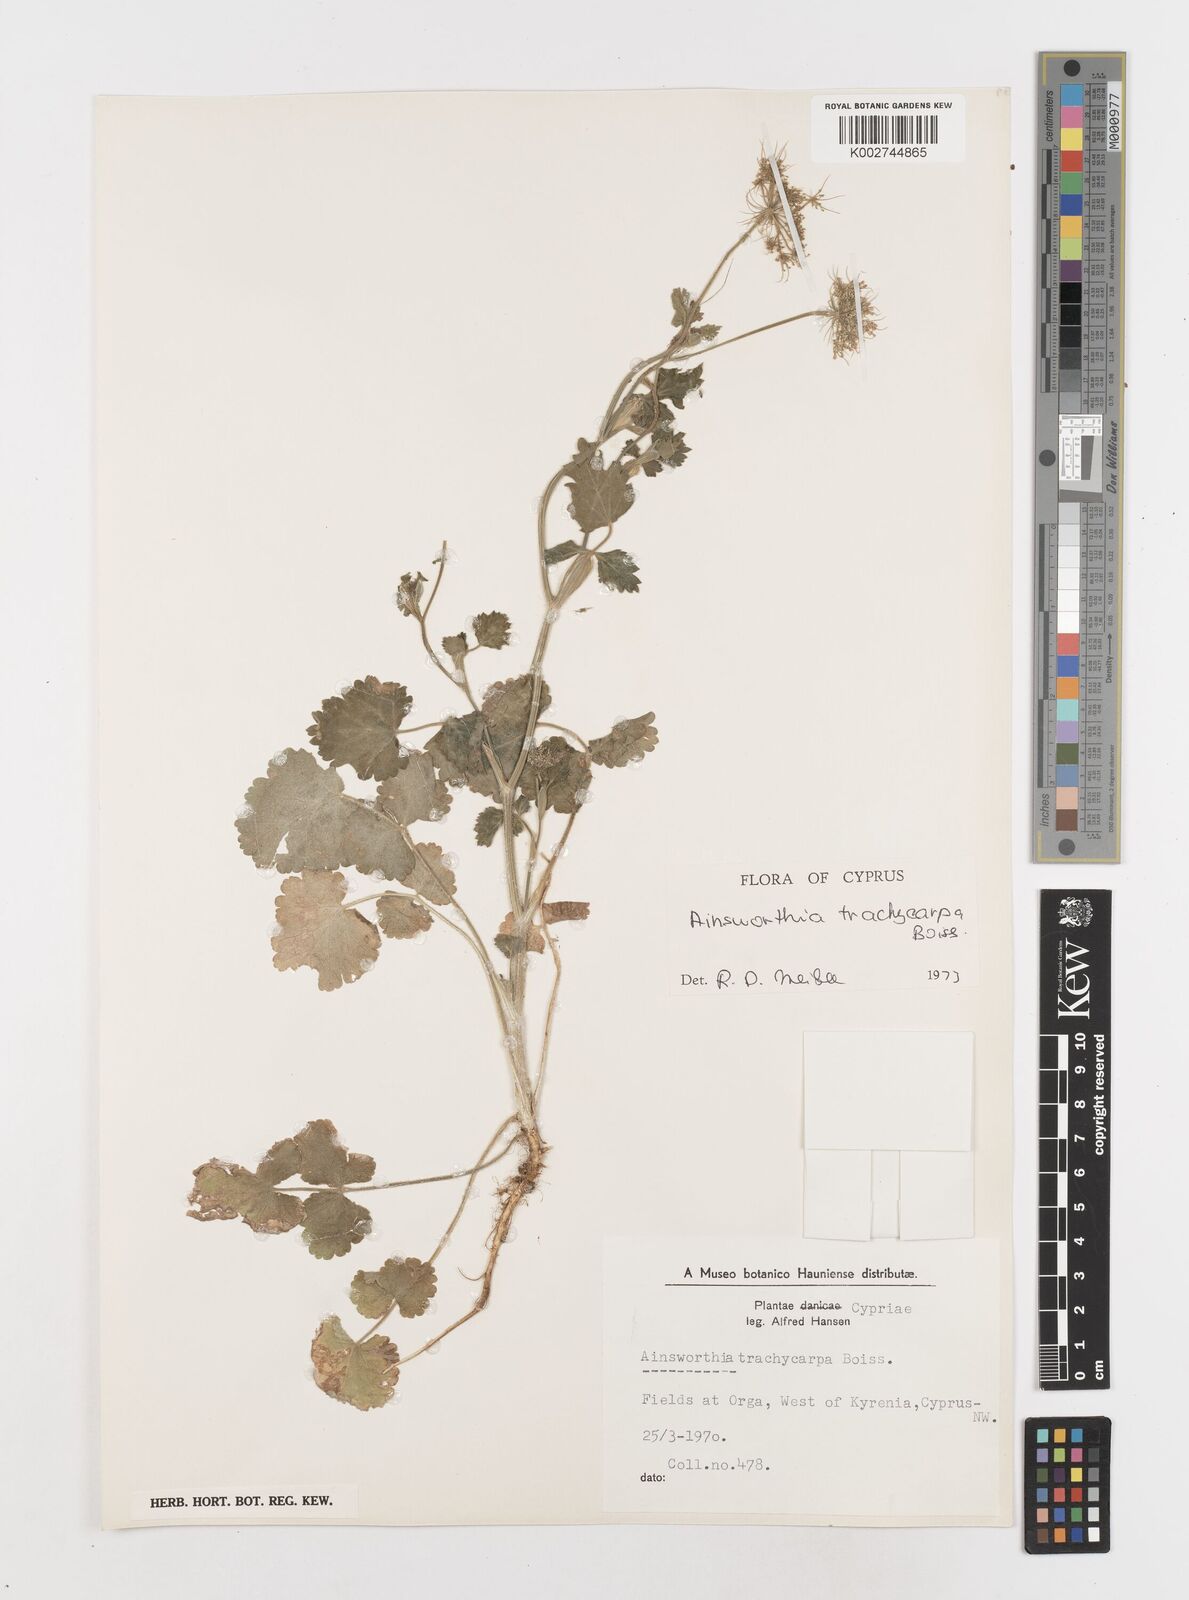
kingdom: Plantae
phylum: Tracheophyta
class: Magnoliopsida
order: Apiales
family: Apiaceae
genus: Ainsworthia
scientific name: Ainsworthia cordata
